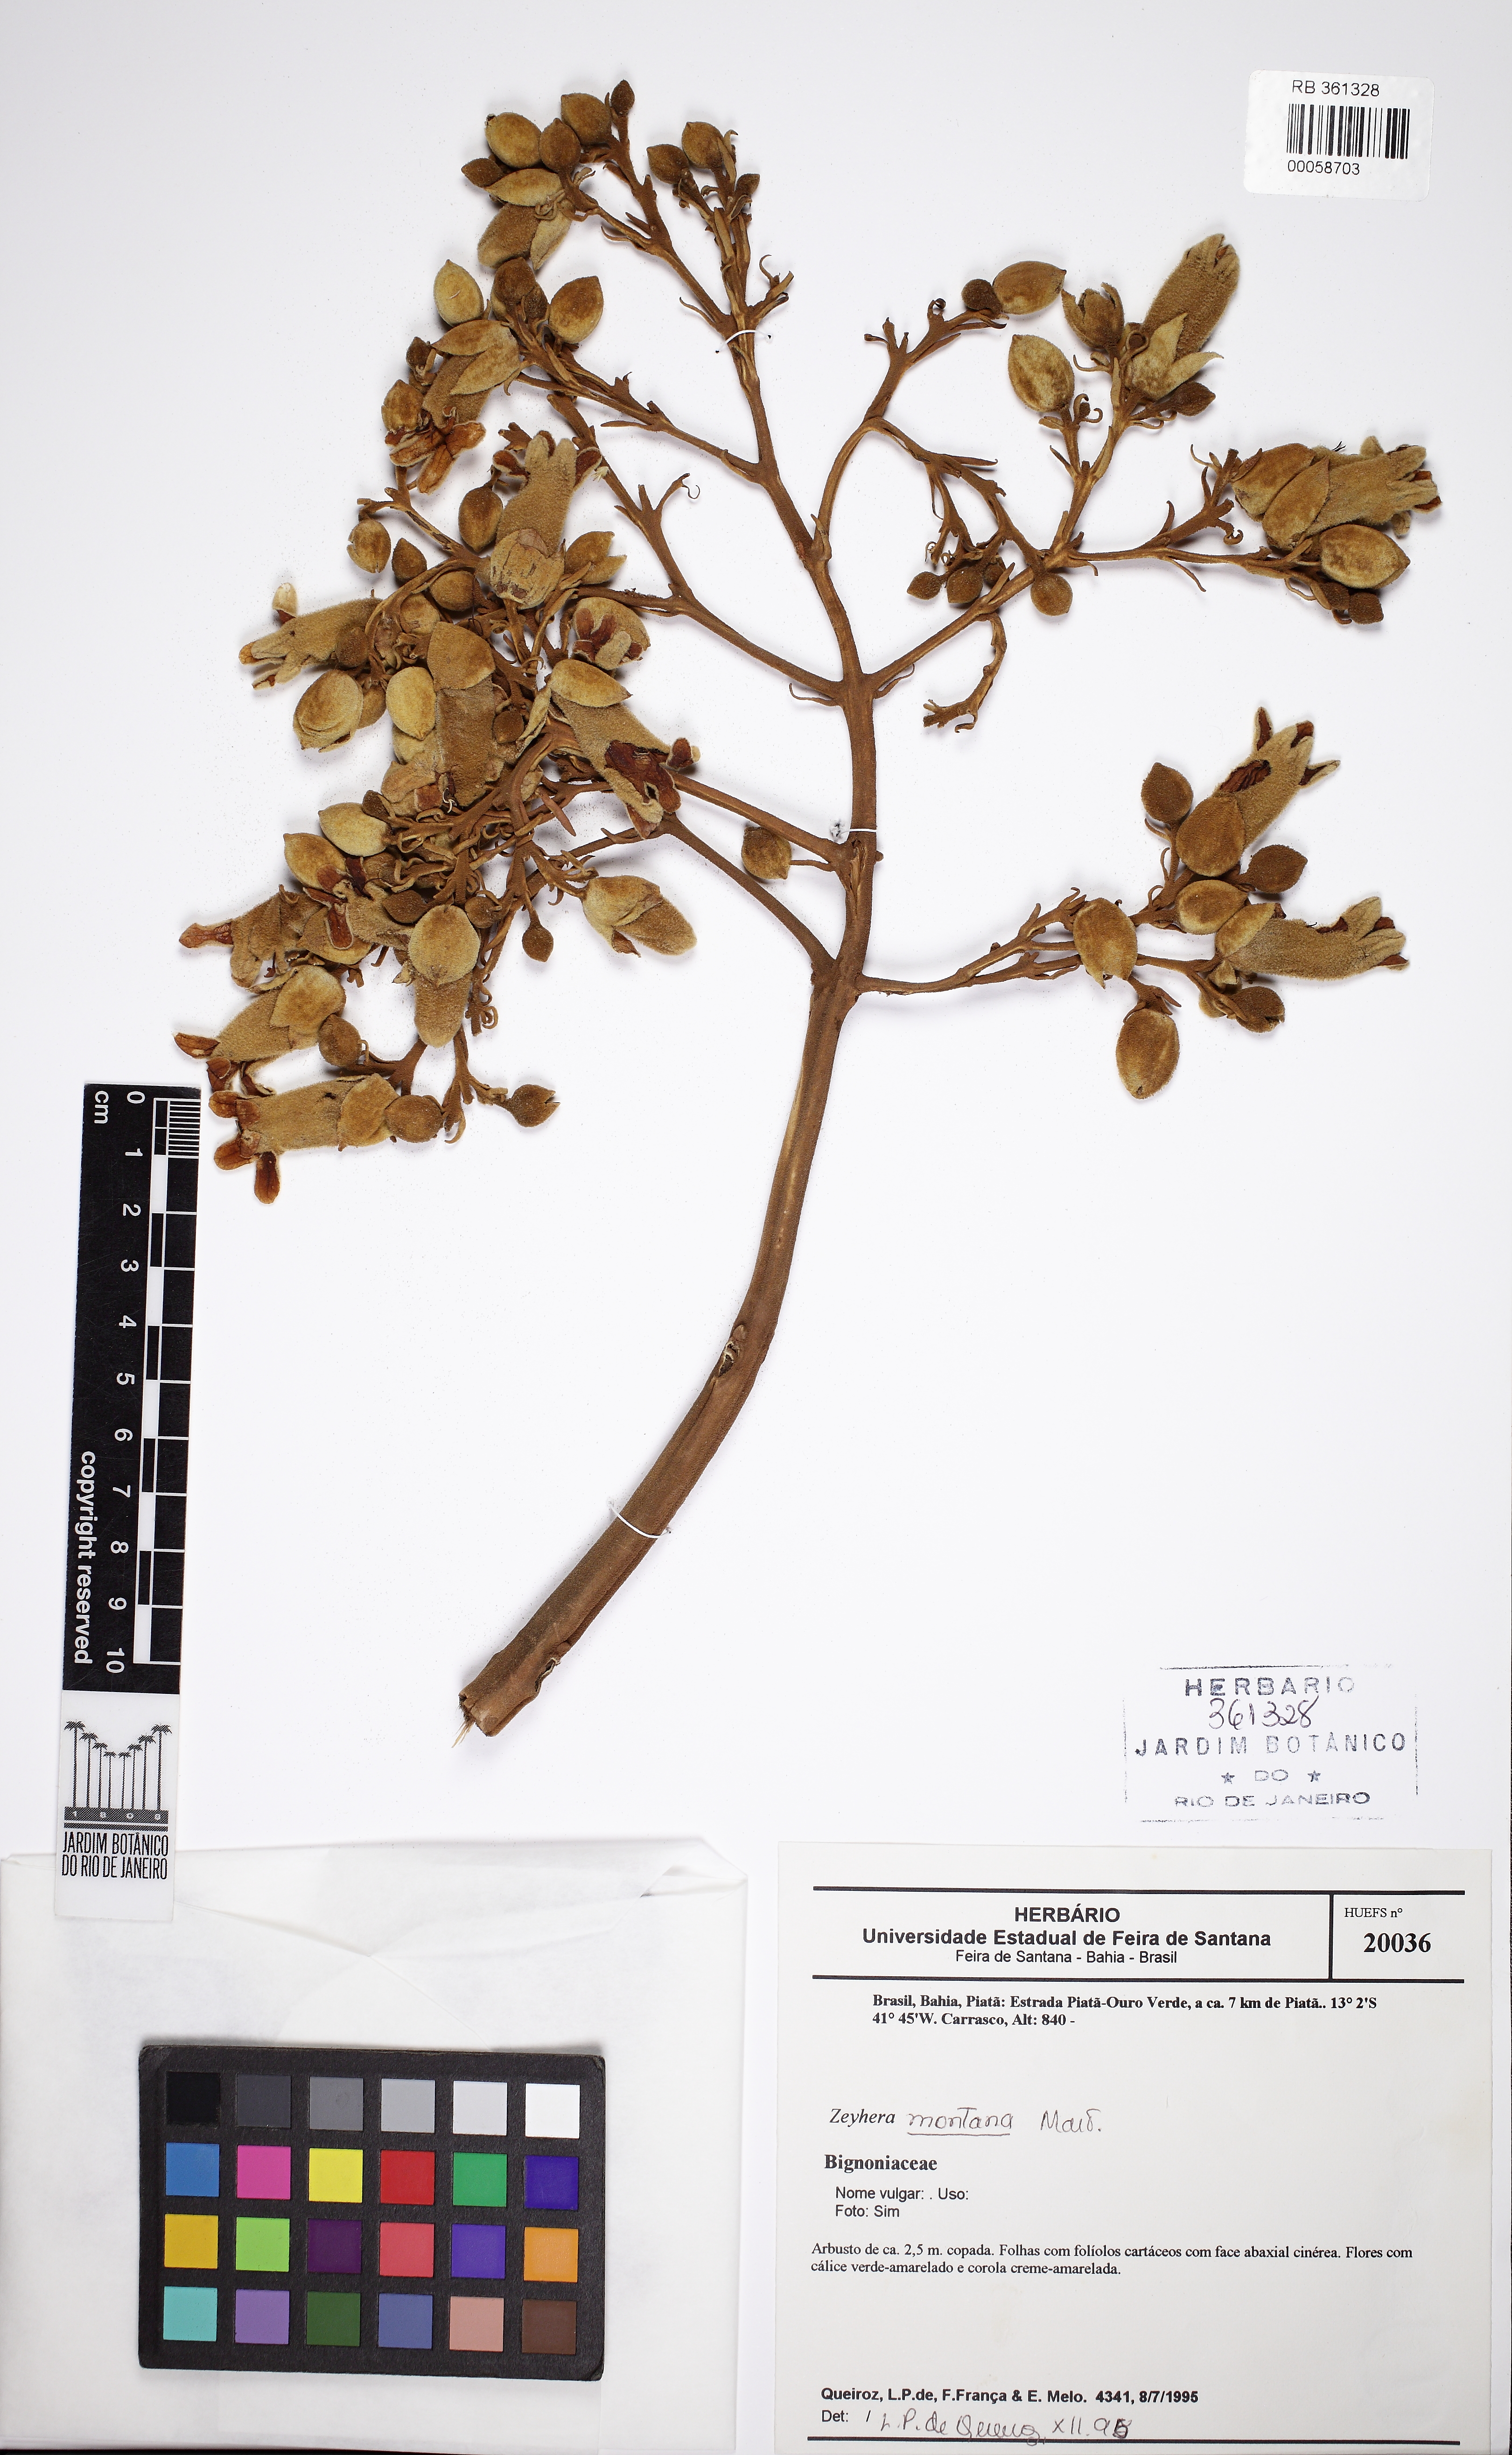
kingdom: Plantae
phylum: Tracheophyta
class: Magnoliopsida
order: Lamiales
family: Bignoniaceae
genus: Zeyheria
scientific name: Zeyheria montana
